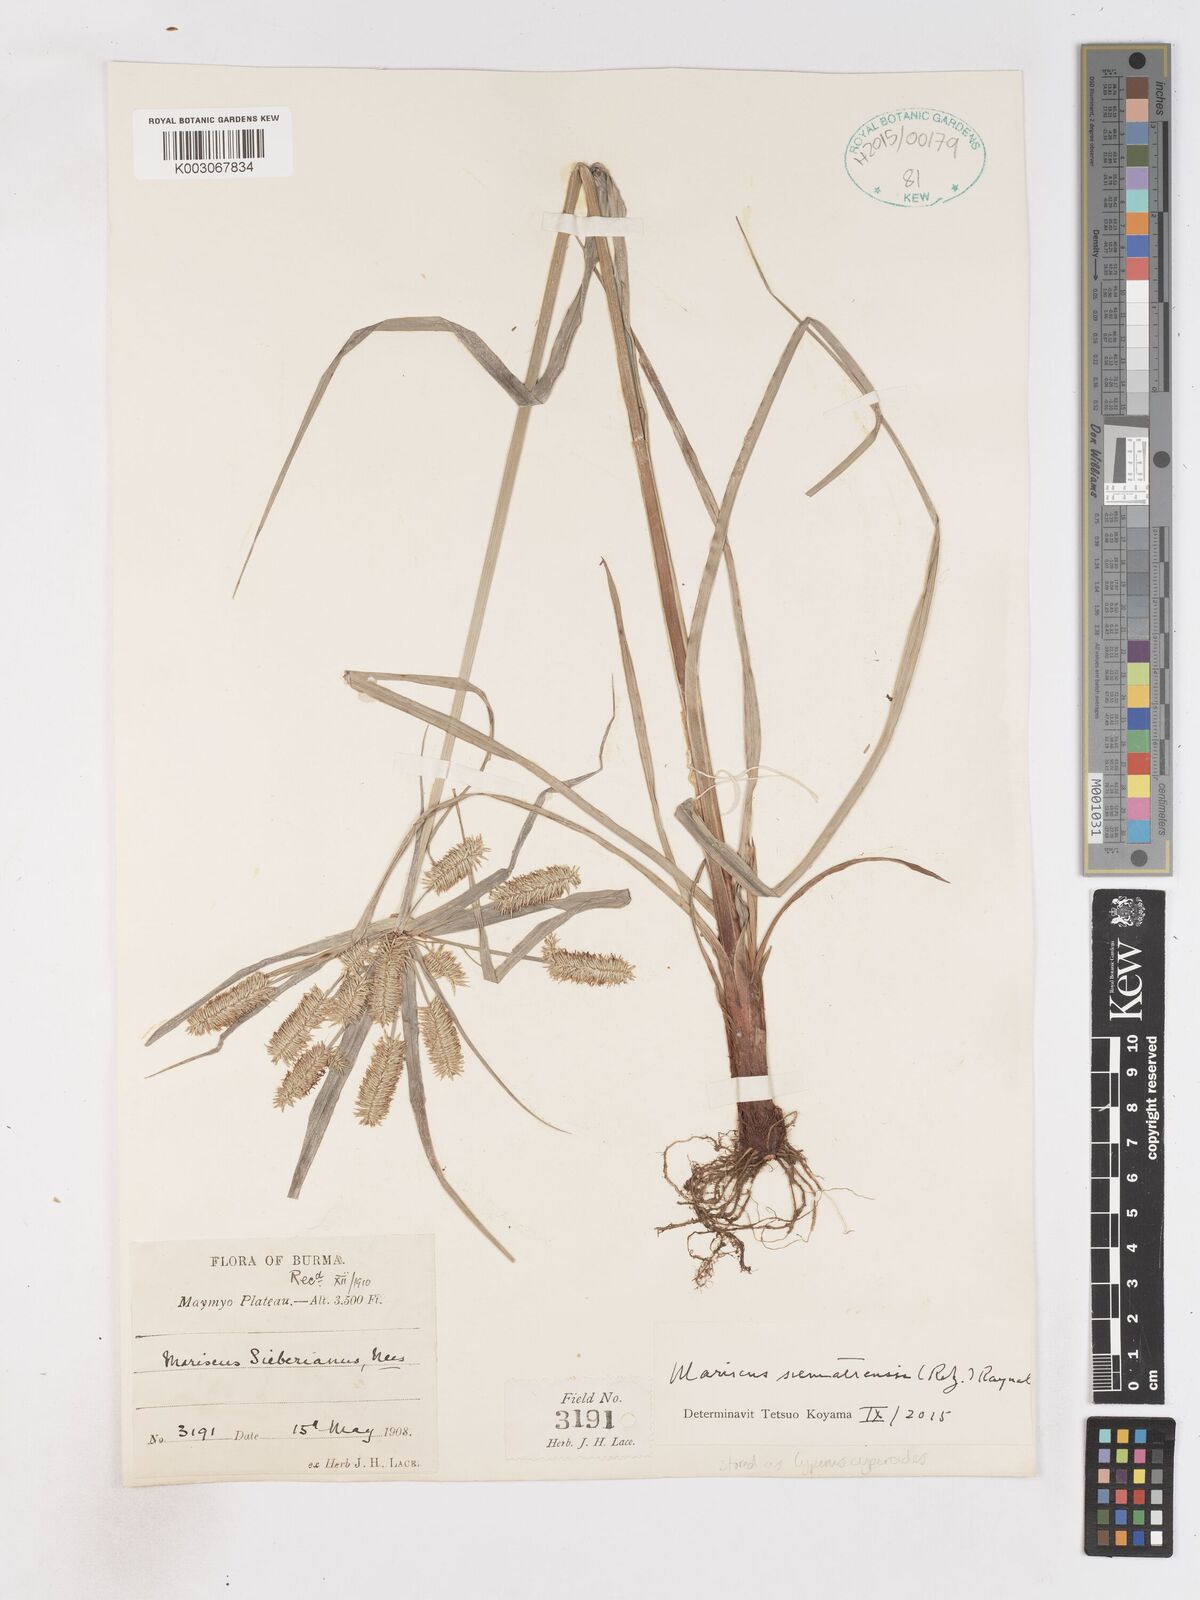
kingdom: Plantae
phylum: Tracheophyta
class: Liliopsida
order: Poales
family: Cyperaceae
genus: Cyperus
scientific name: Cyperus cyperoides
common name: Pacific island flat sedge
